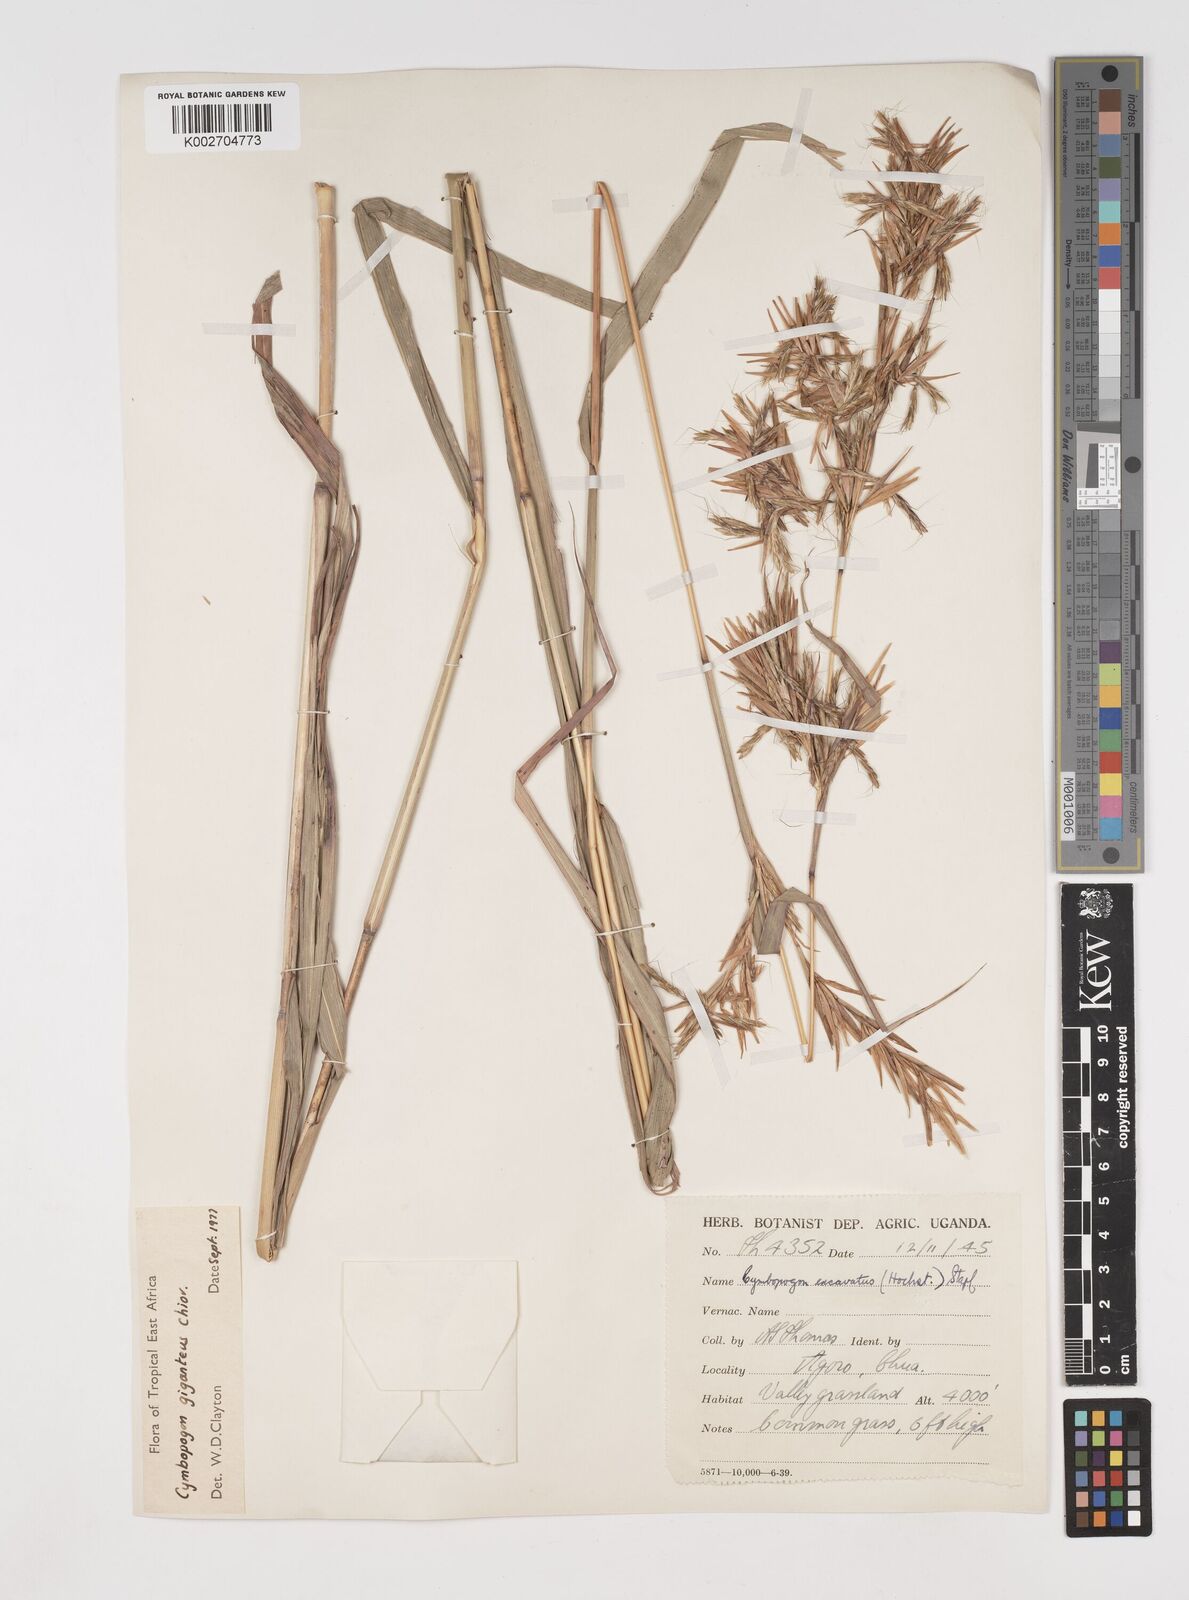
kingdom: Plantae
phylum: Tracheophyta
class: Liliopsida
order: Poales
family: Poaceae
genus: Cymbopogon
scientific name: Cymbopogon giganteus
